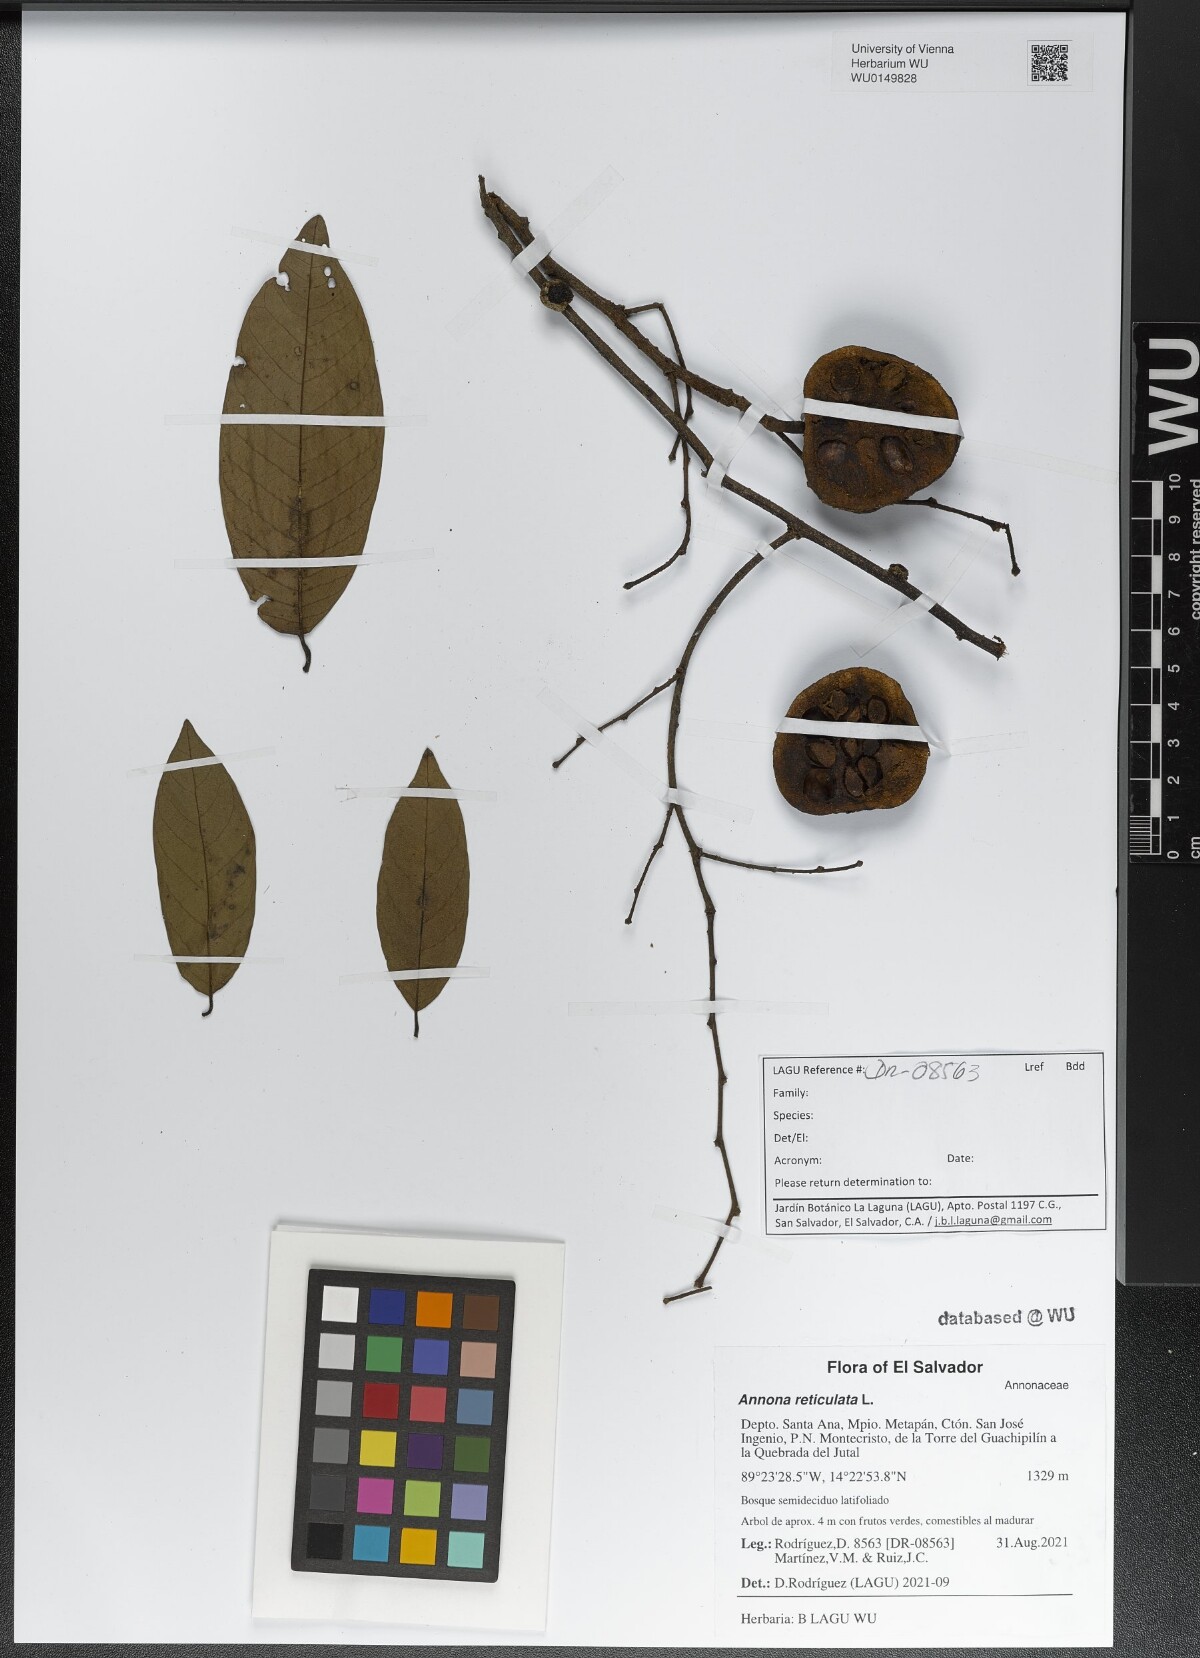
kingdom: Plantae
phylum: Tracheophyta
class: Magnoliopsida
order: Magnoliales
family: Annonaceae
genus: Annona
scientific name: Annona reticulata
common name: Custard apple
